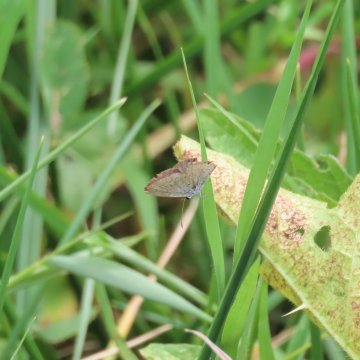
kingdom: Animalia
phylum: Arthropoda
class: Insecta
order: Lepidoptera
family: Lycaenidae
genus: Elkalyce
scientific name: Elkalyce comyntas
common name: Eastern Tailed-Blue
